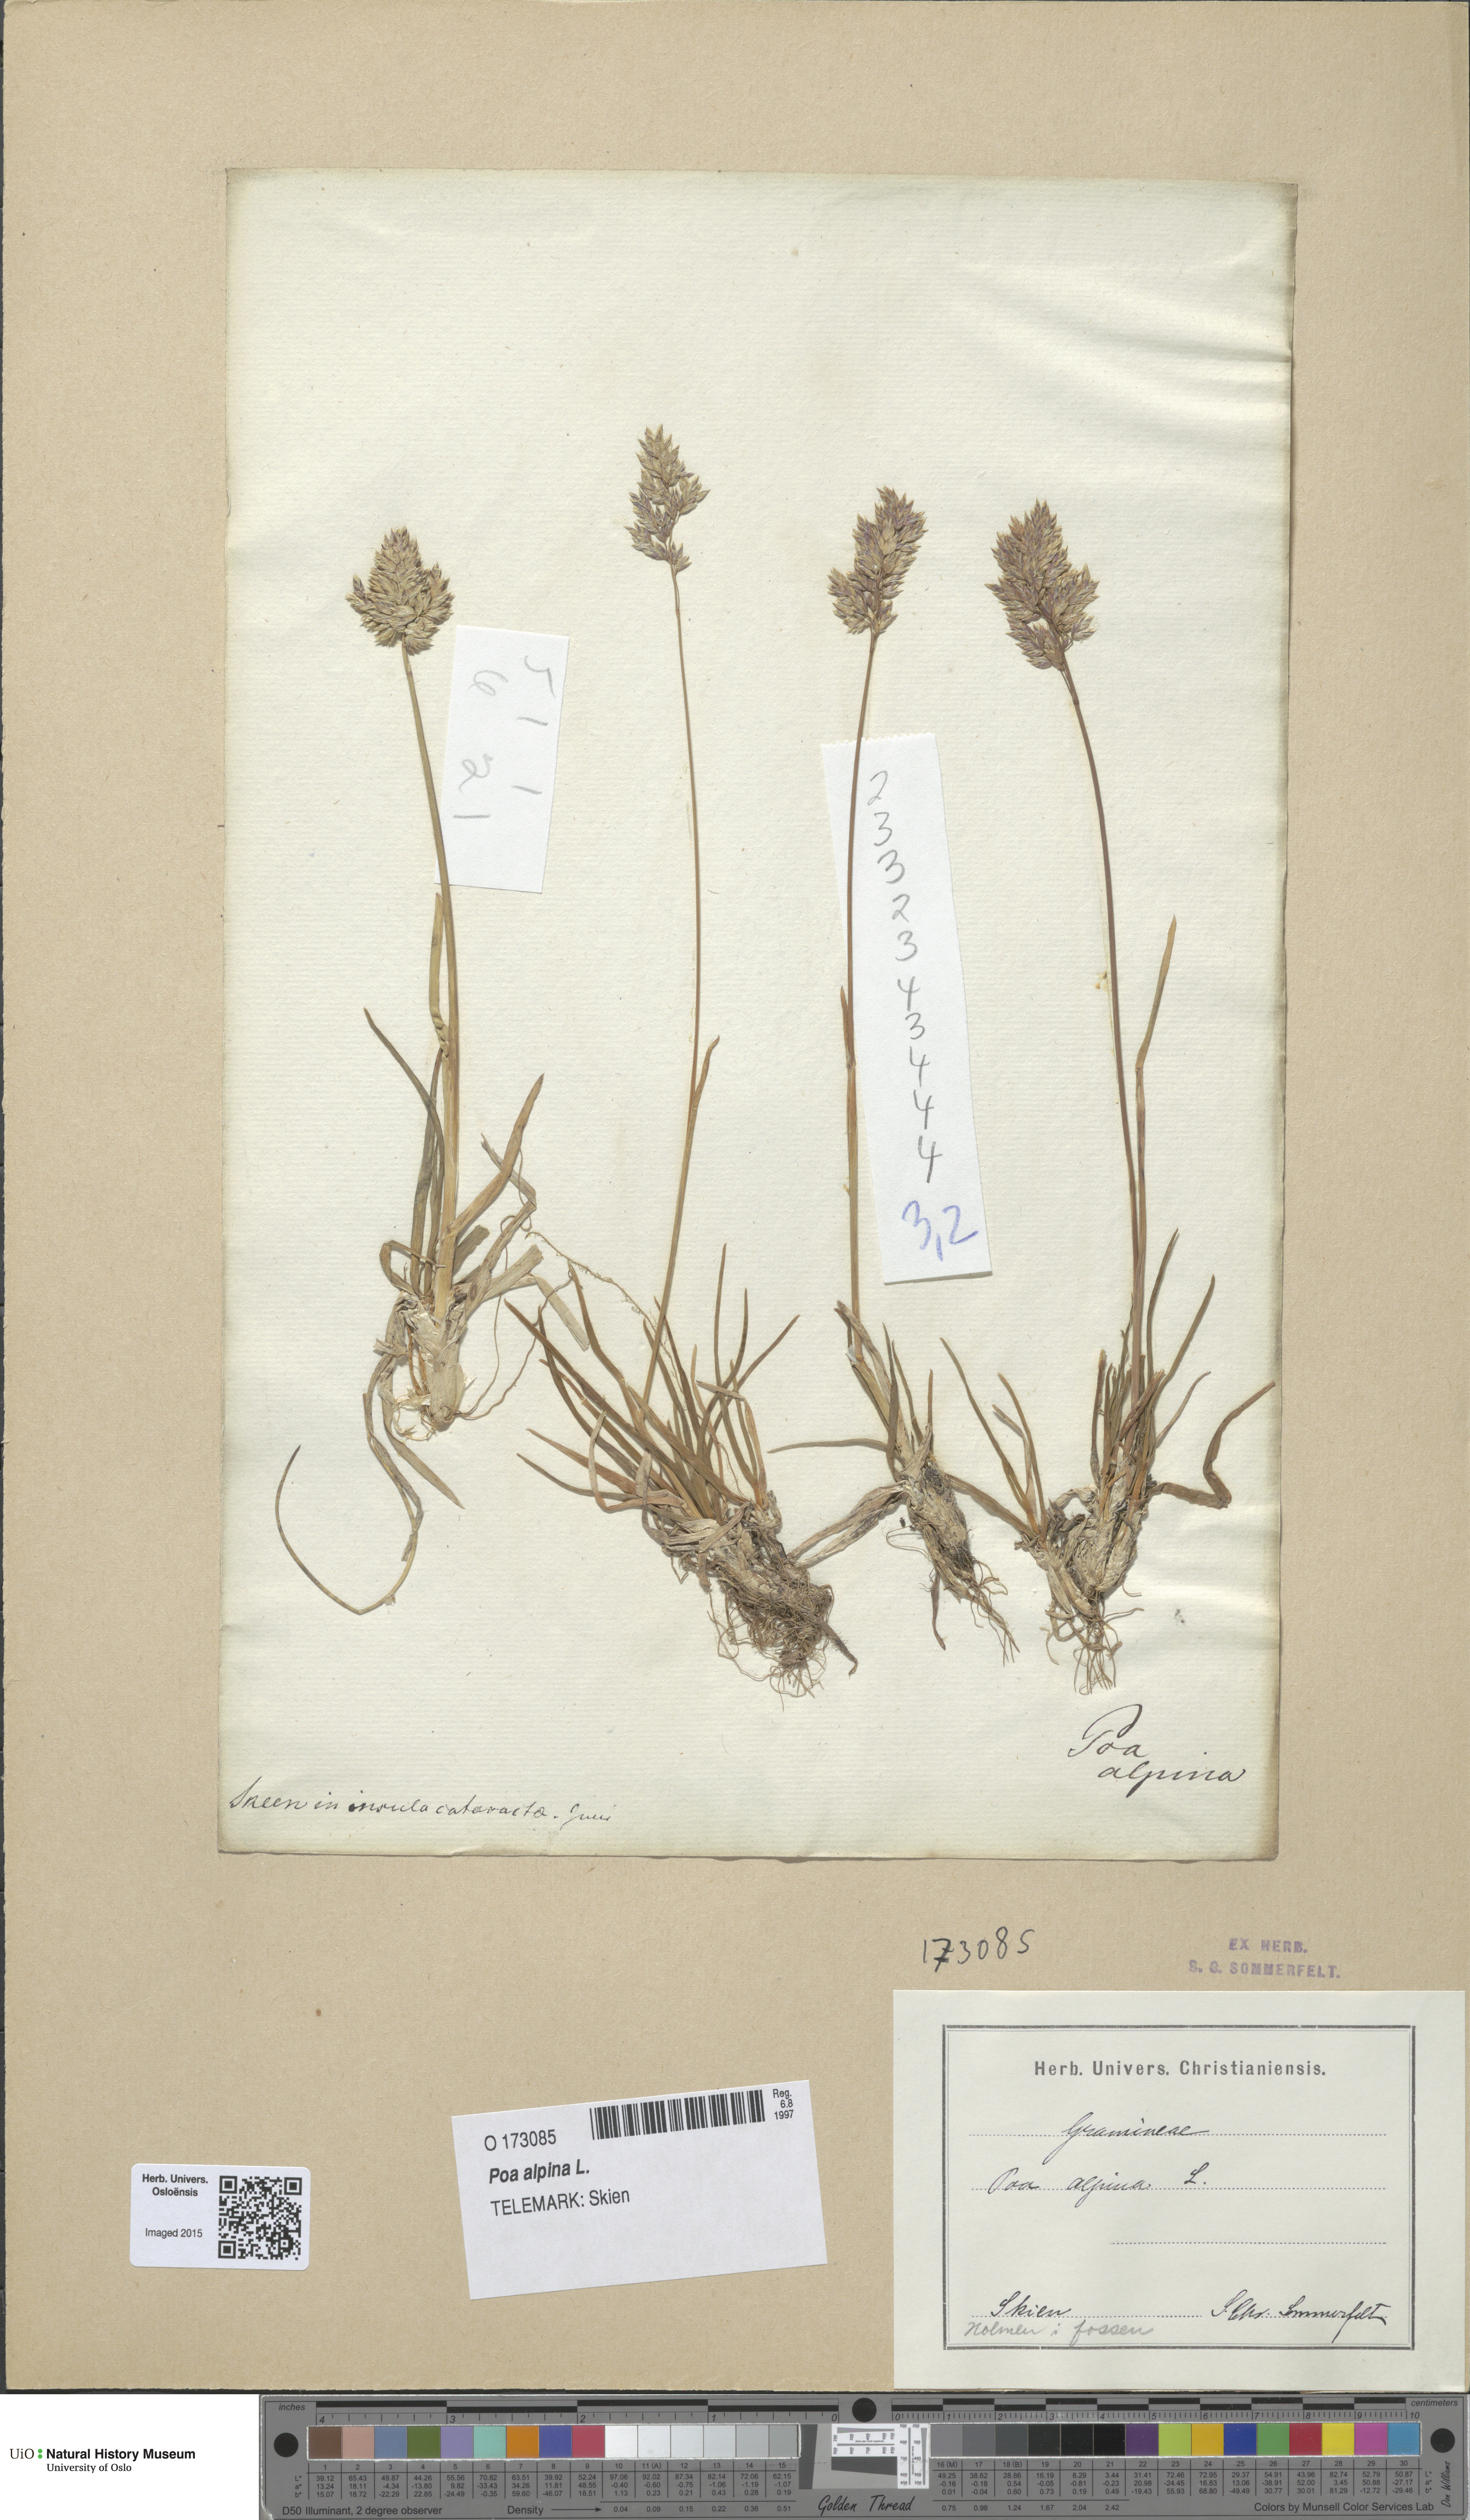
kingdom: Plantae
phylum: Tracheophyta
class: Liliopsida
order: Poales
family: Poaceae
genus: Poa
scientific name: Poa alpina
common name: Alpine bluegrass
